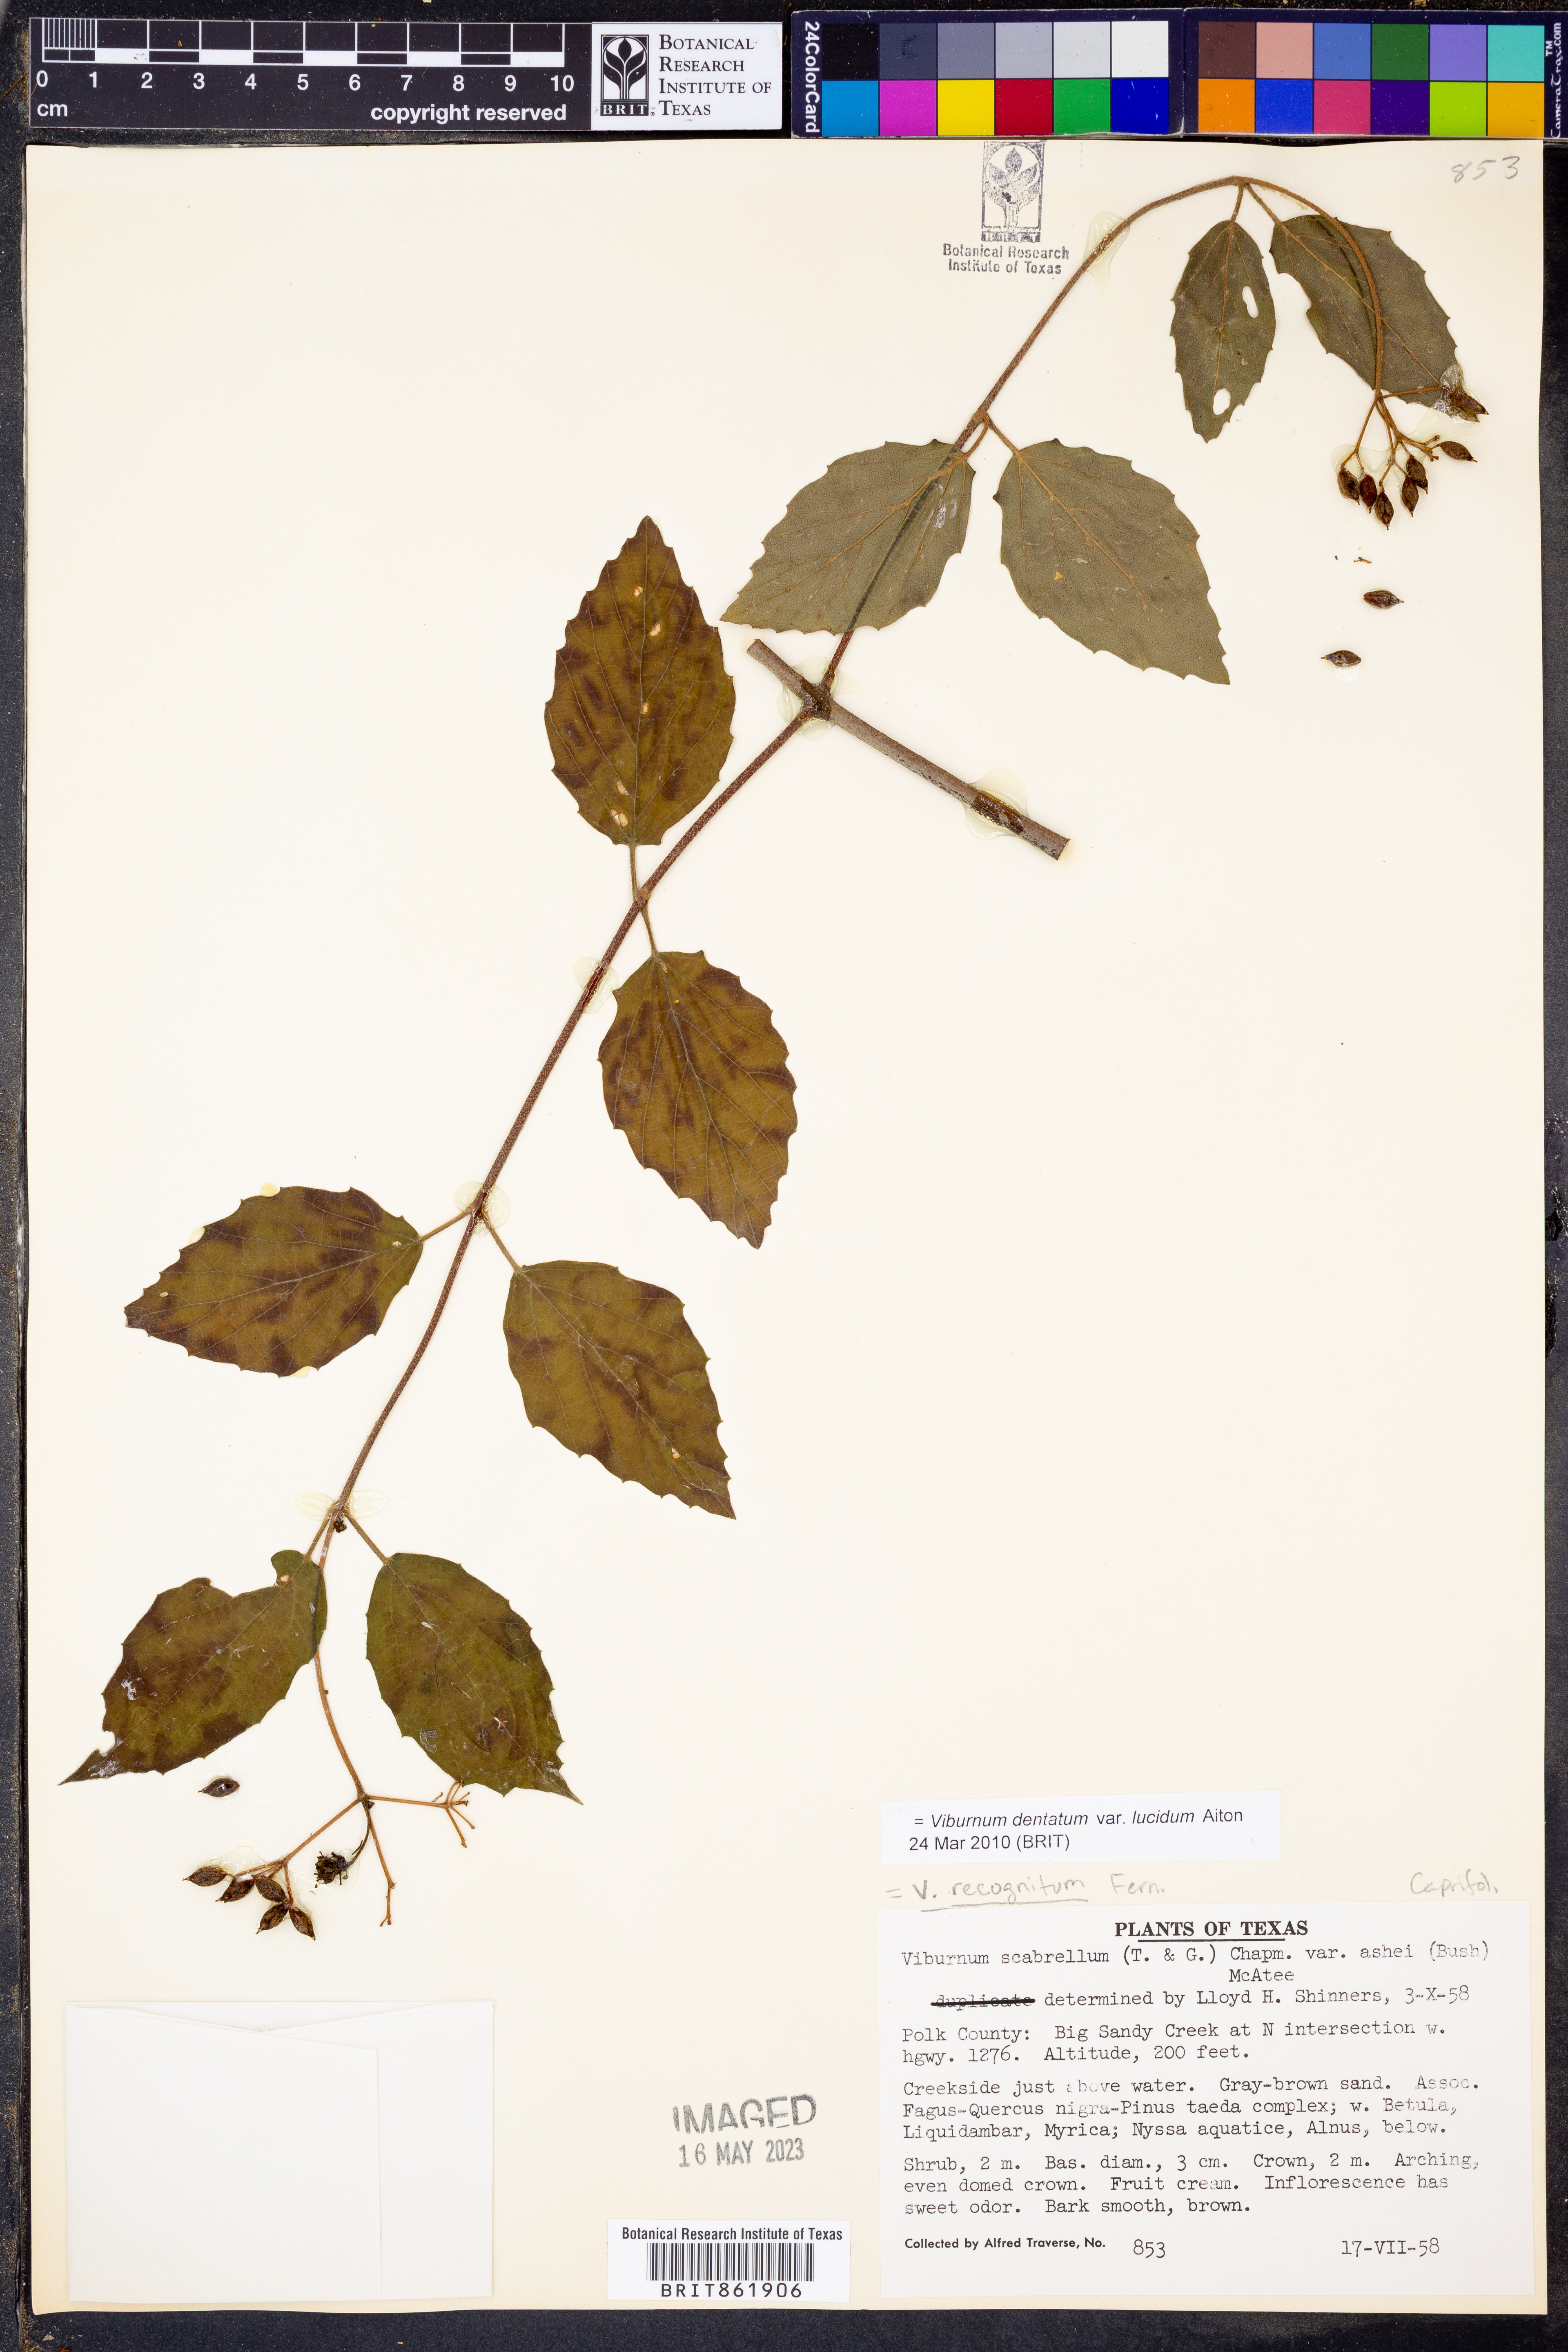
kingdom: Plantae
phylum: Tracheophyta
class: Magnoliopsida
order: Dipsacales
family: Viburnaceae
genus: Viburnum
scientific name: Viburnum recognitum
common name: Northern arrow-wood
